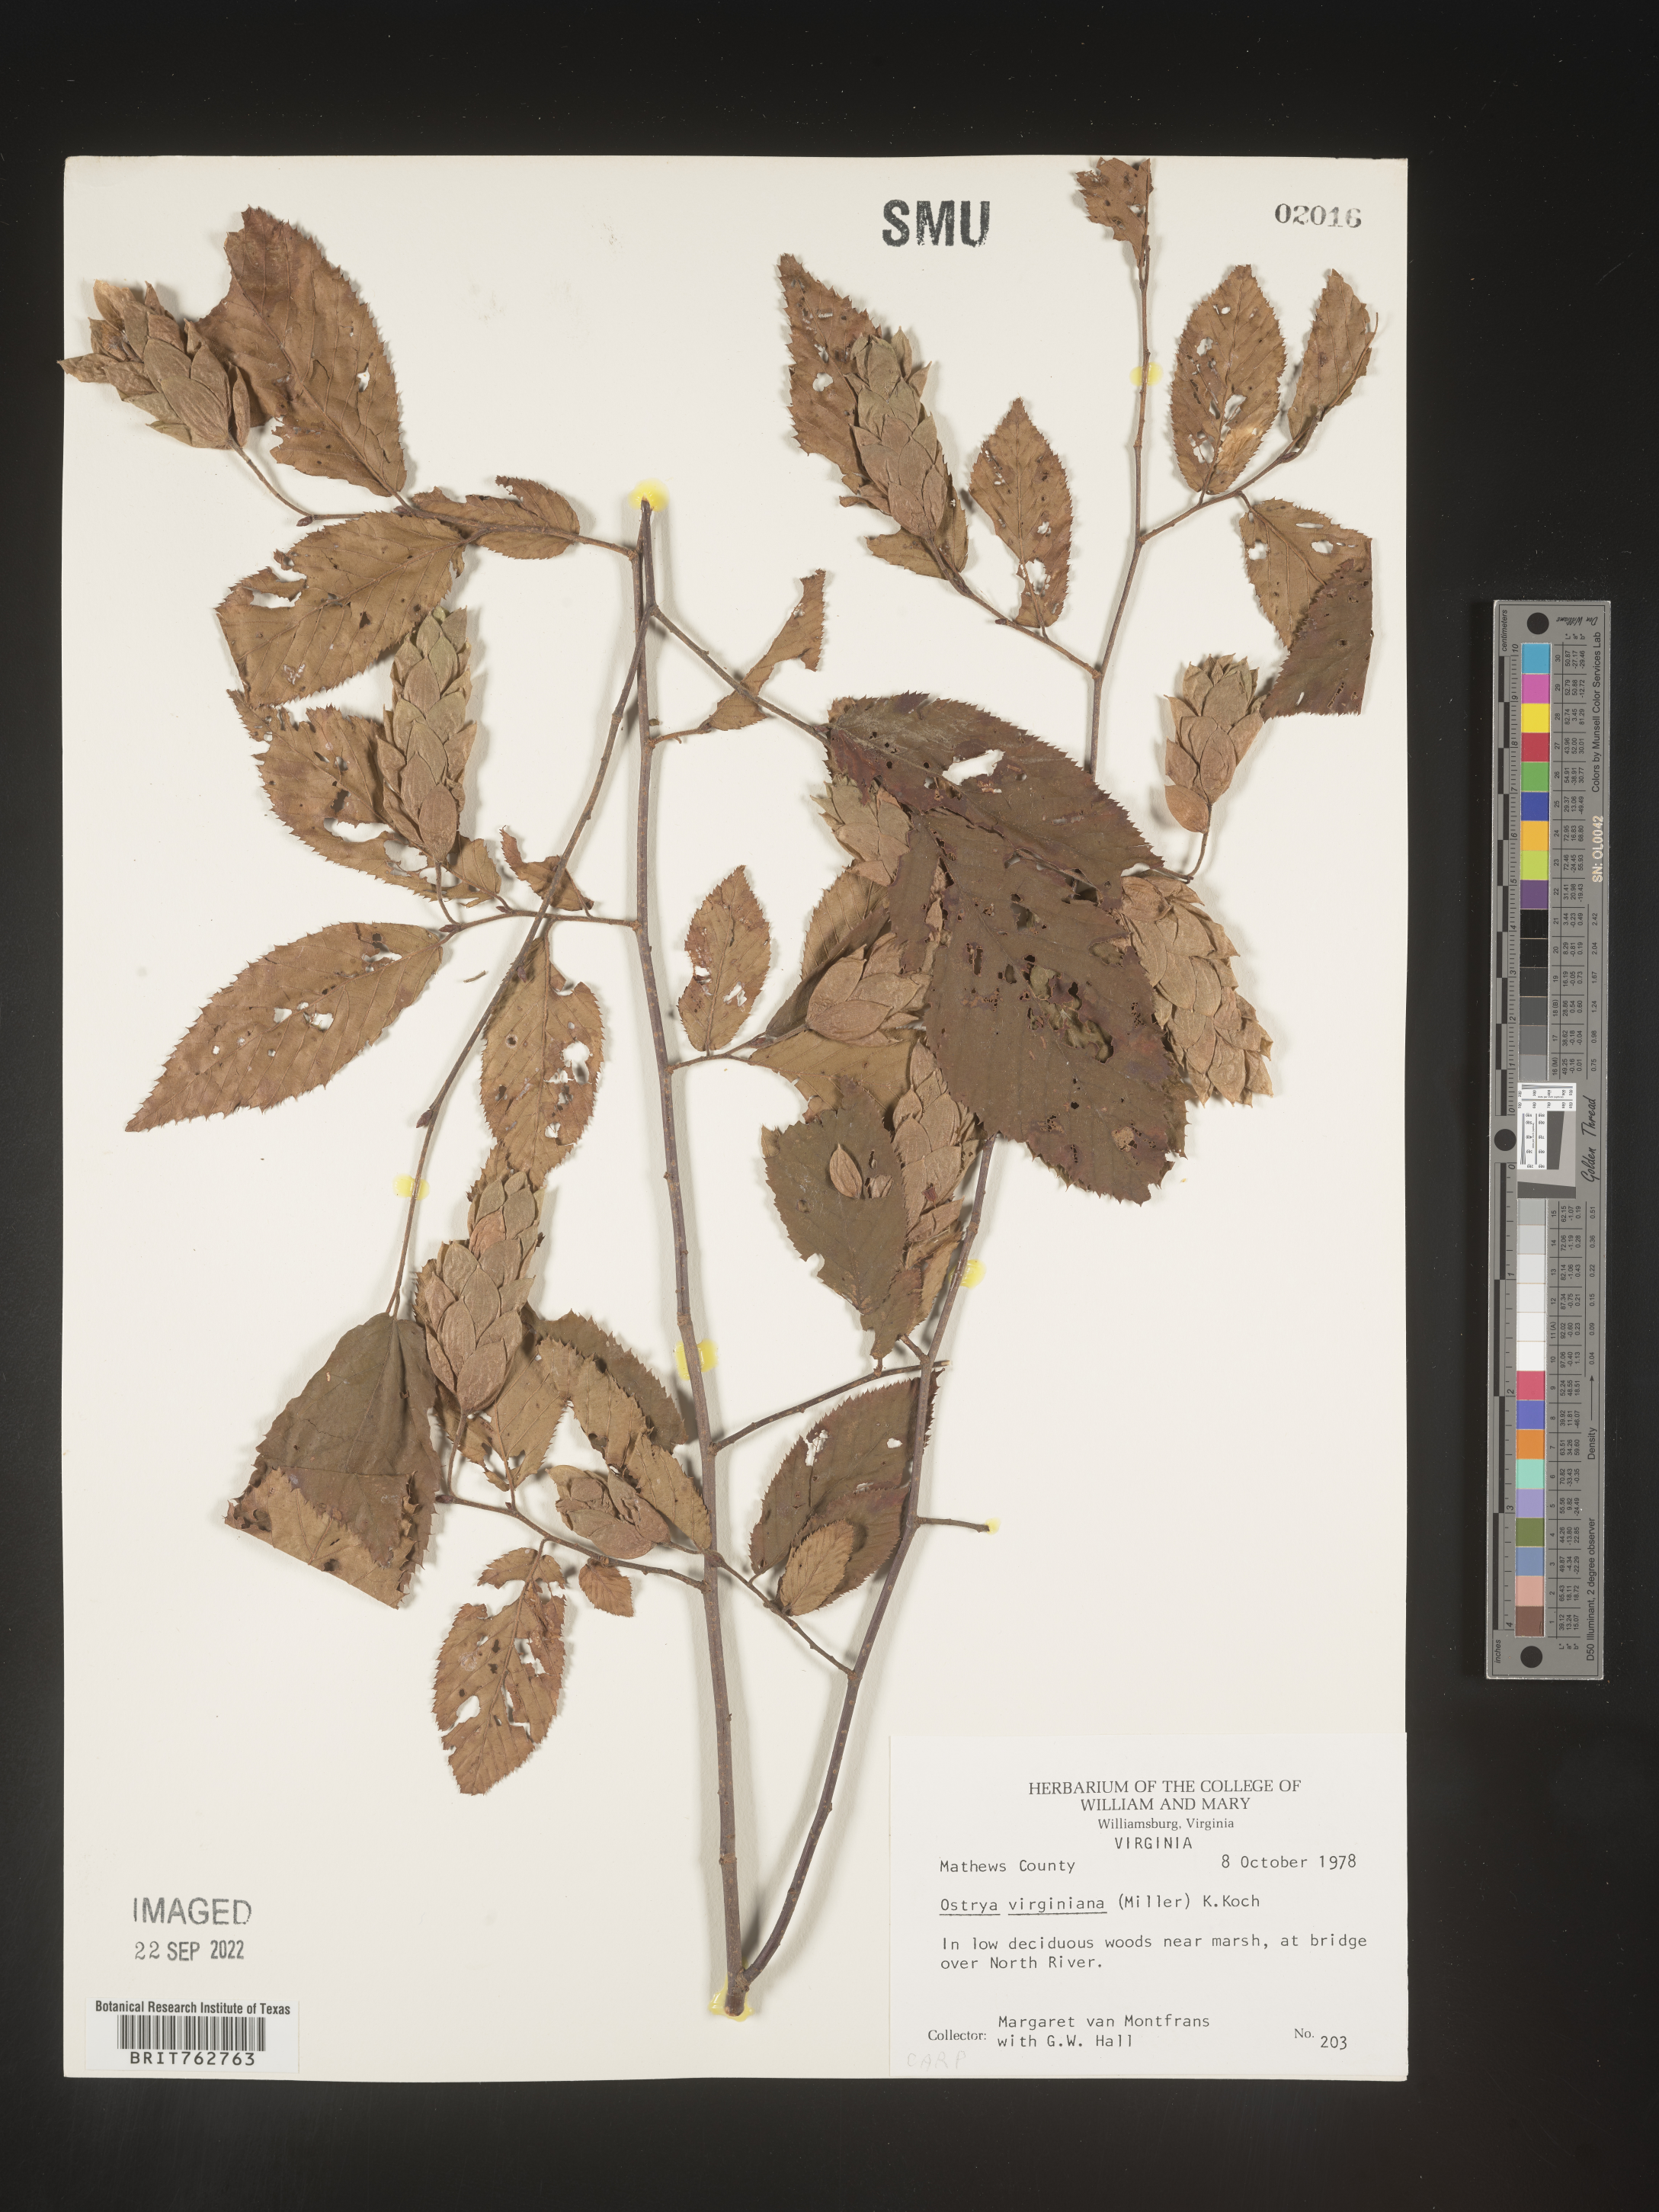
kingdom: Plantae
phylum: Tracheophyta
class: Magnoliopsida
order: Fagales
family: Betulaceae
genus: Ostrya
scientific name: Ostrya virginiana
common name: Ironwood
